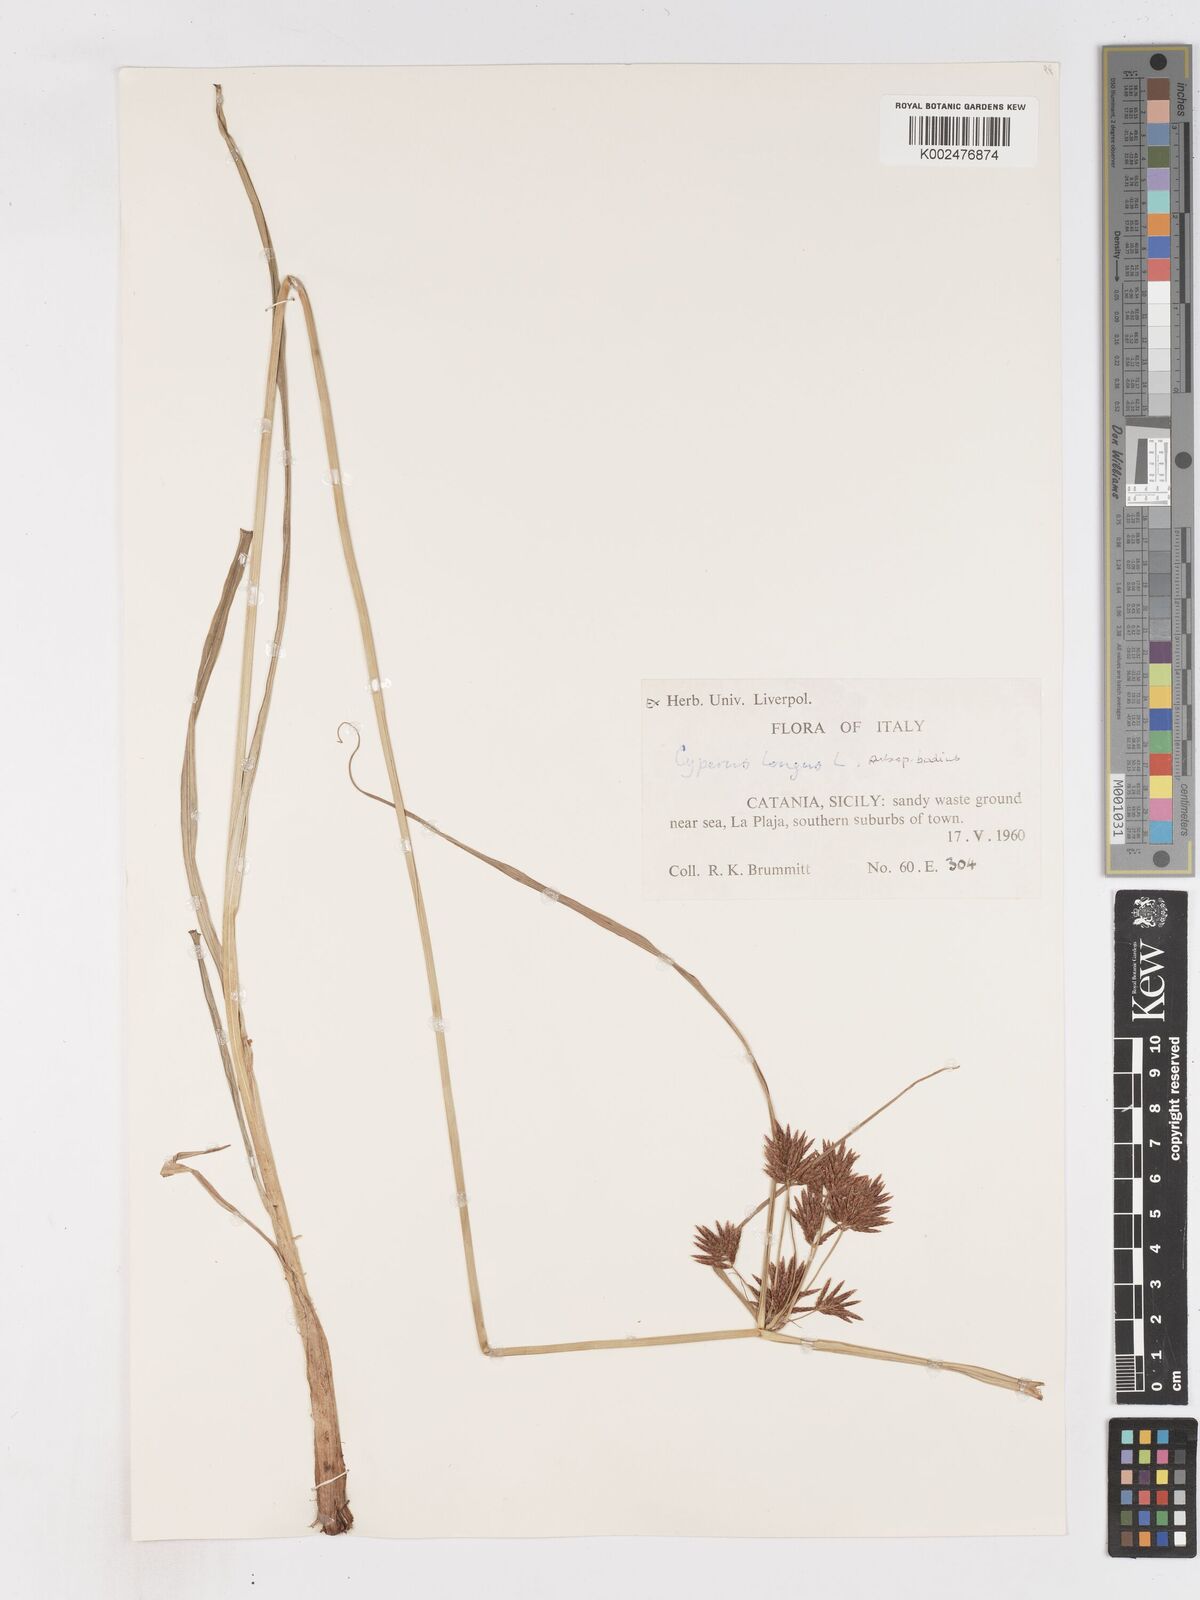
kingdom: Plantae
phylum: Tracheophyta
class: Liliopsida
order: Poales
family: Cyperaceae
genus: Cyperus
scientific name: Cyperus longus
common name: Galingale
